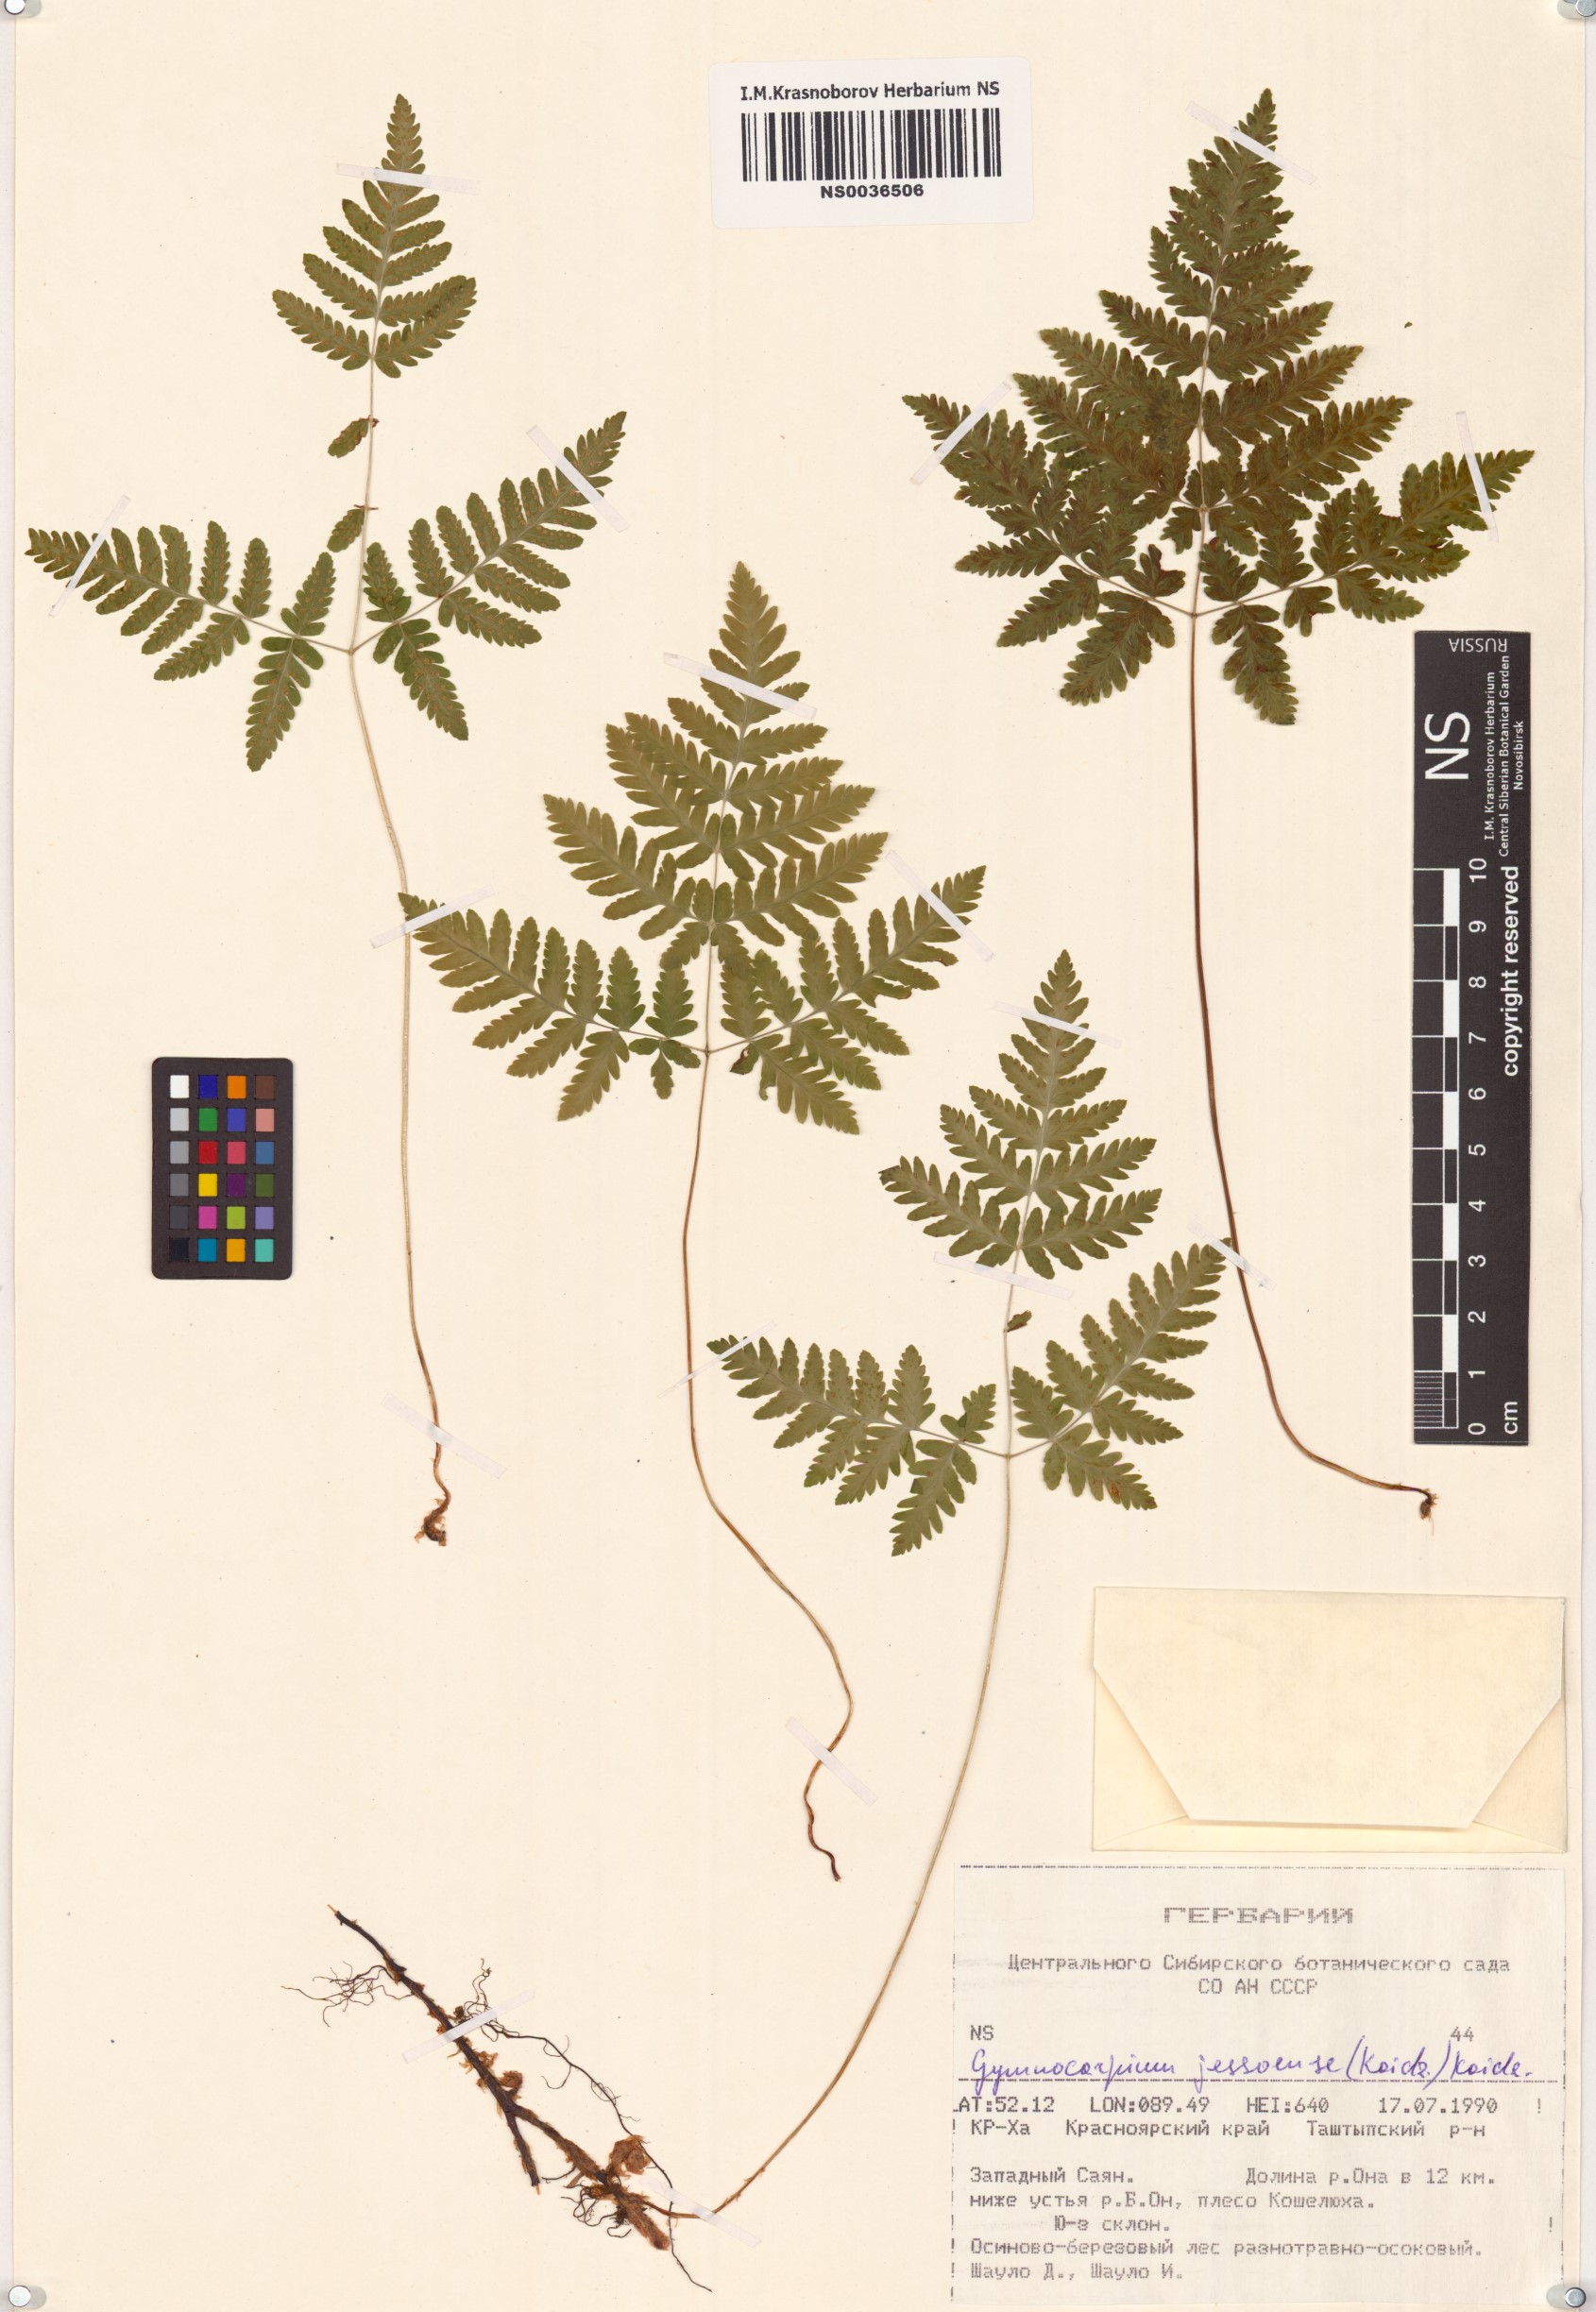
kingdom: Plantae
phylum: Tracheophyta
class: Polypodiopsida
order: Polypodiales
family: Cystopteridaceae
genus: Gymnocarpium
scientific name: Gymnocarpium jessoense
